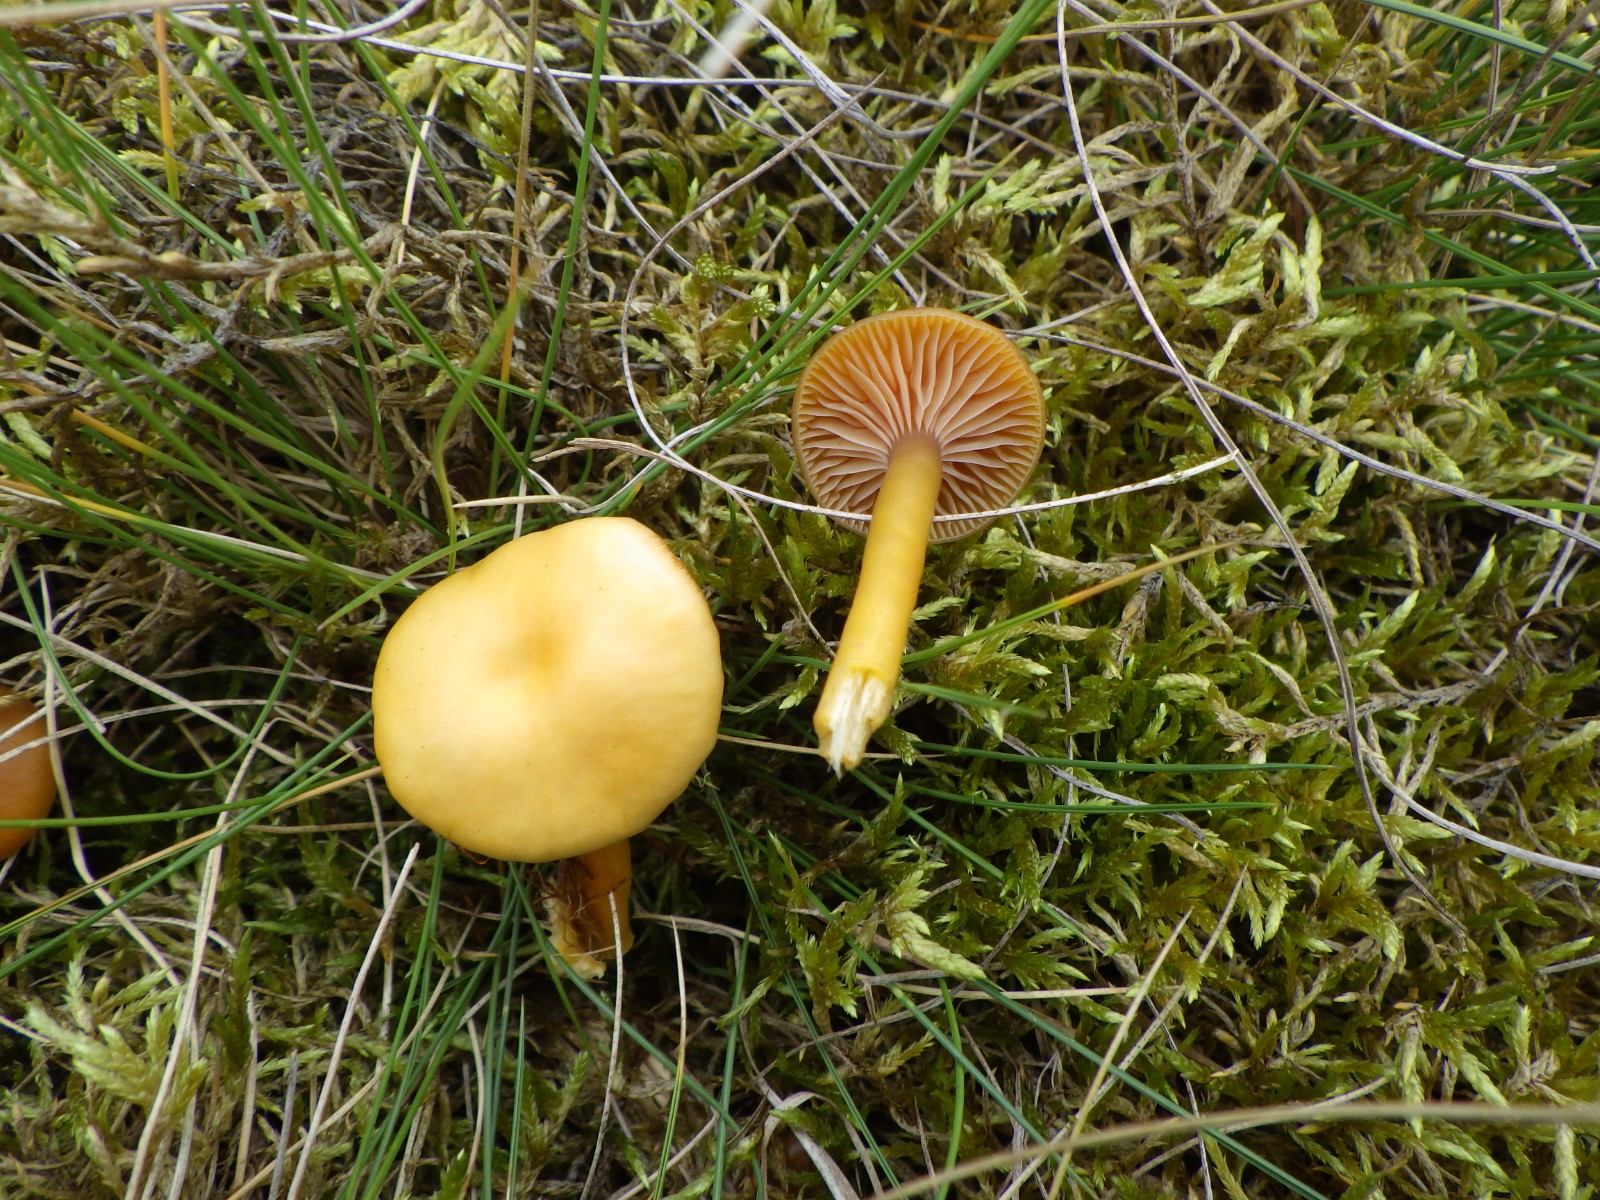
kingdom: Fungi
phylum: Basidiomycota
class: Agaricomycetes
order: Agaricales
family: Hygrophoraceae
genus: Gliophorus
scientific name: Gliophorus laetus
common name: brusk-vokshat
